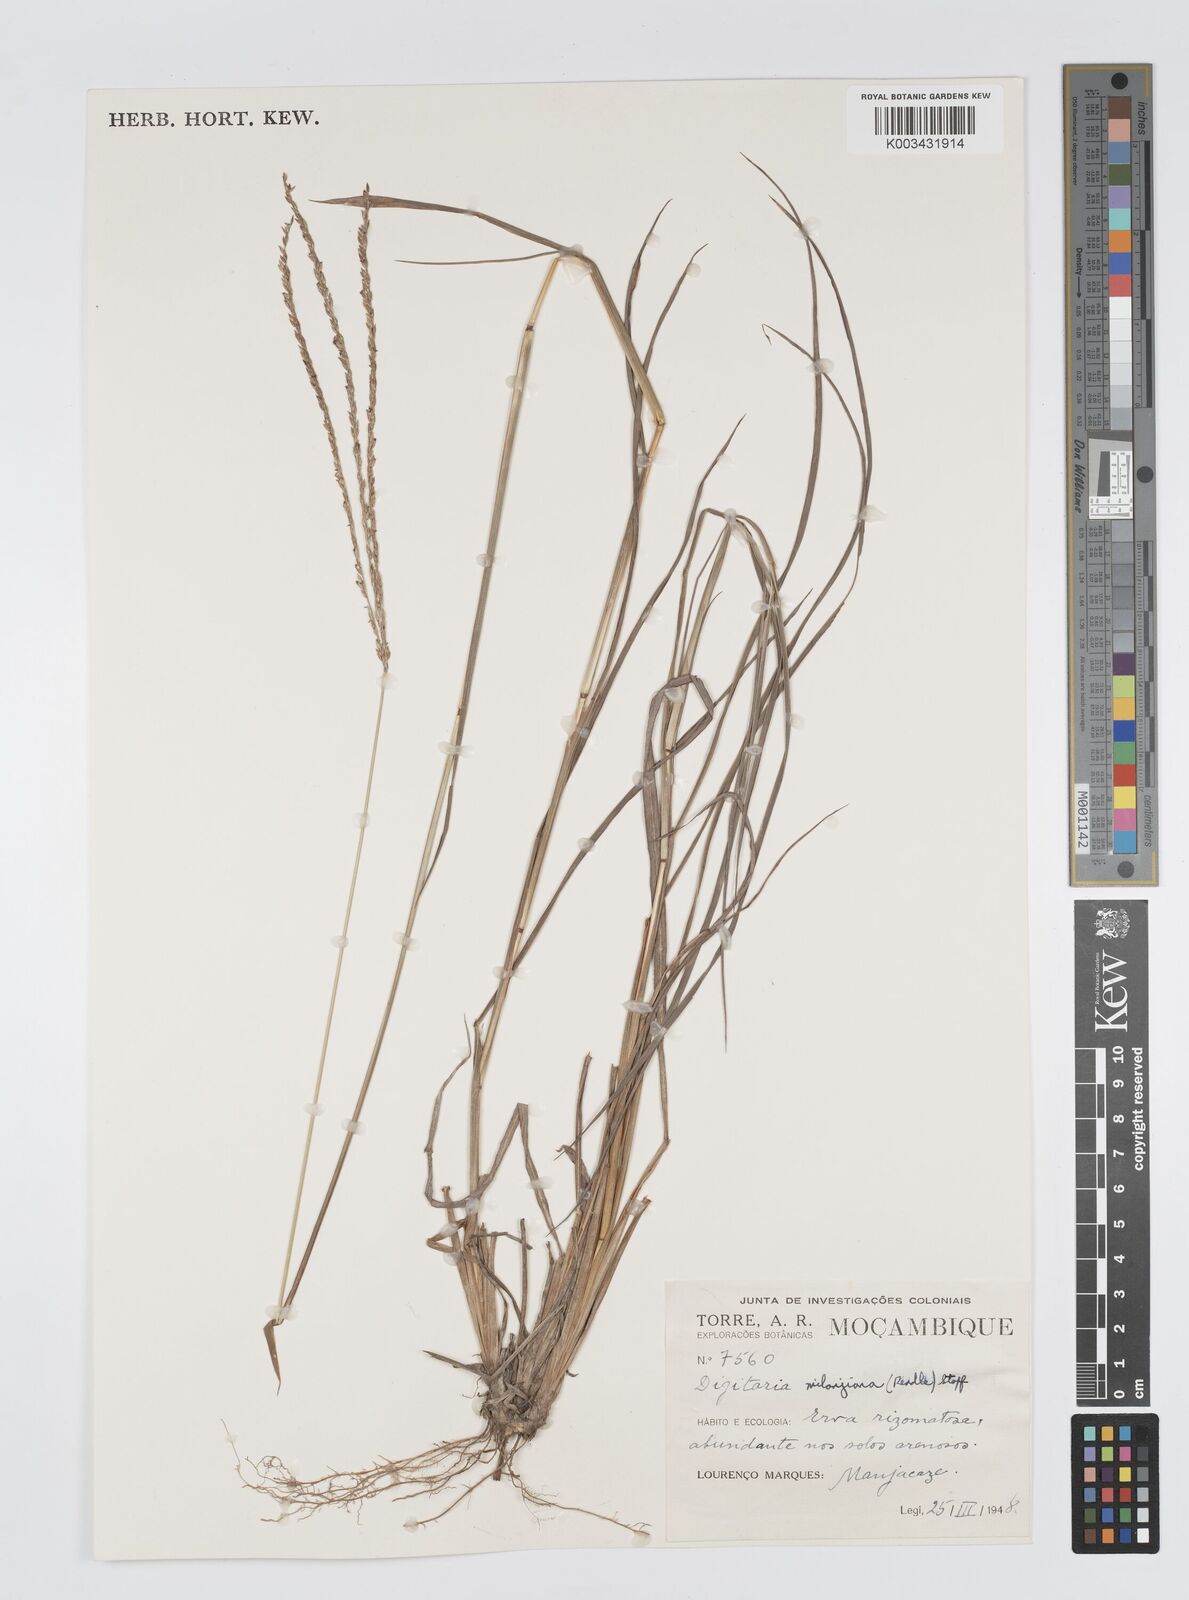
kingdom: Plantae
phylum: Tracheophyta
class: Liliopsida
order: Poales
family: Poaceae
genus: Digitaria
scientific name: Digitaria milanjiana
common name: Madagascar crabgrass
